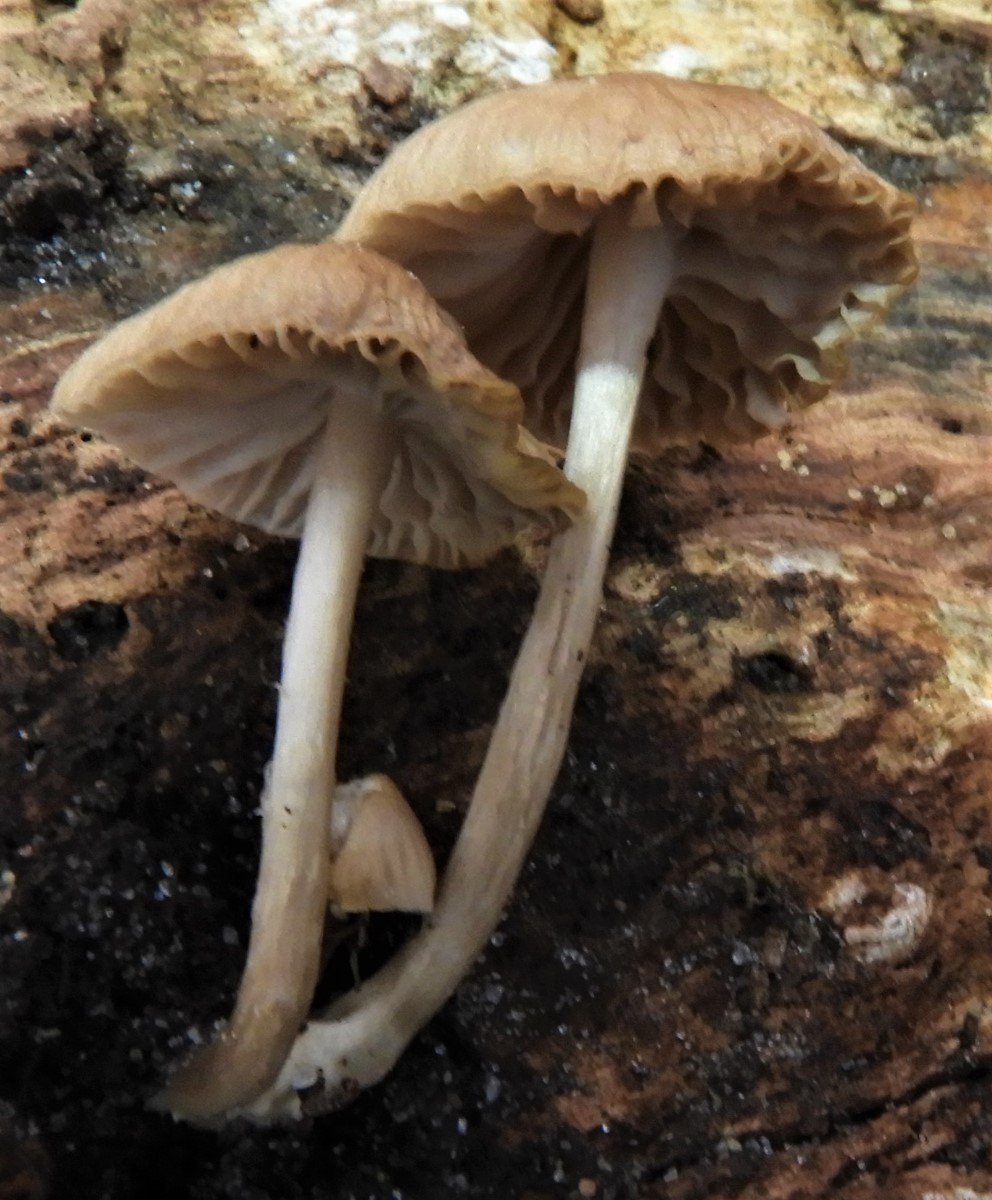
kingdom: Fungi
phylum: Basidiomycota
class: Agaricomycetes
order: Agaricales
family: Mycenaceae
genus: Mycena
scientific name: Mycena galericulata
